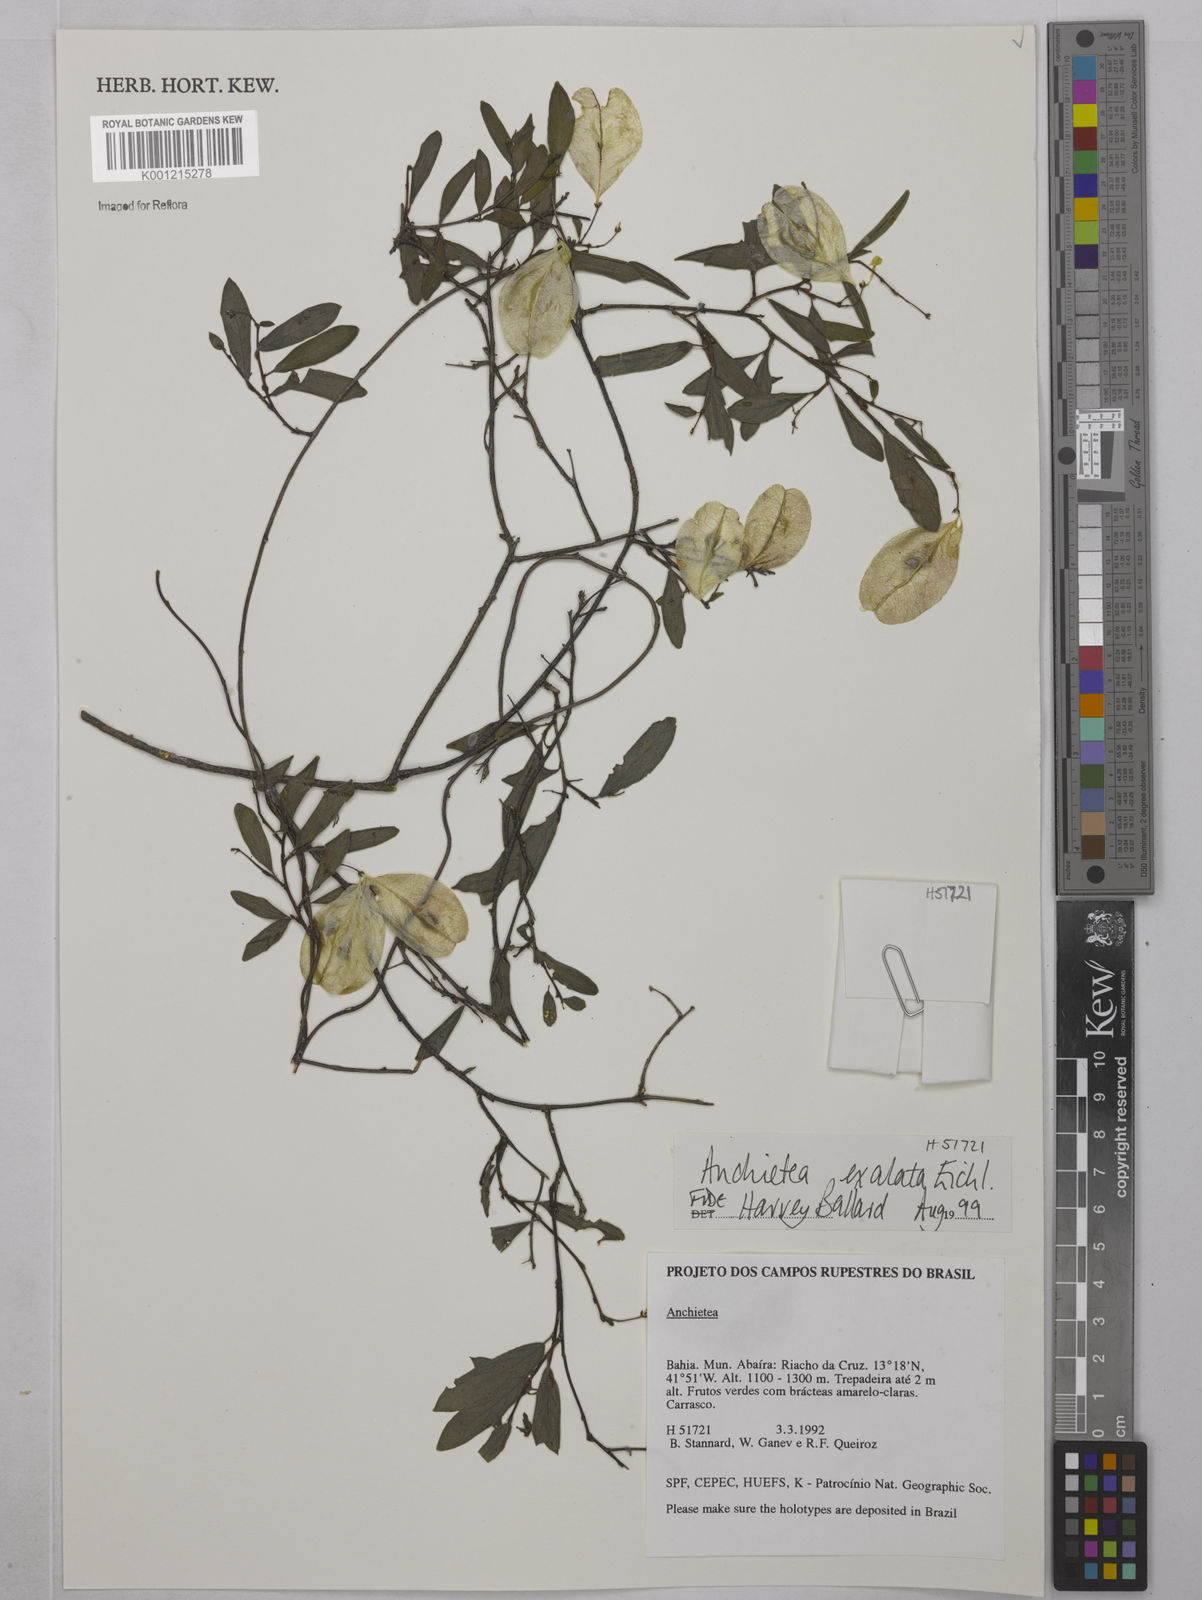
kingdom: Plantae
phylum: Tracheophyta
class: Magnoliopsida
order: Malpighiales
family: Violaceae
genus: Anchietea
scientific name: Anchietea exaltata
